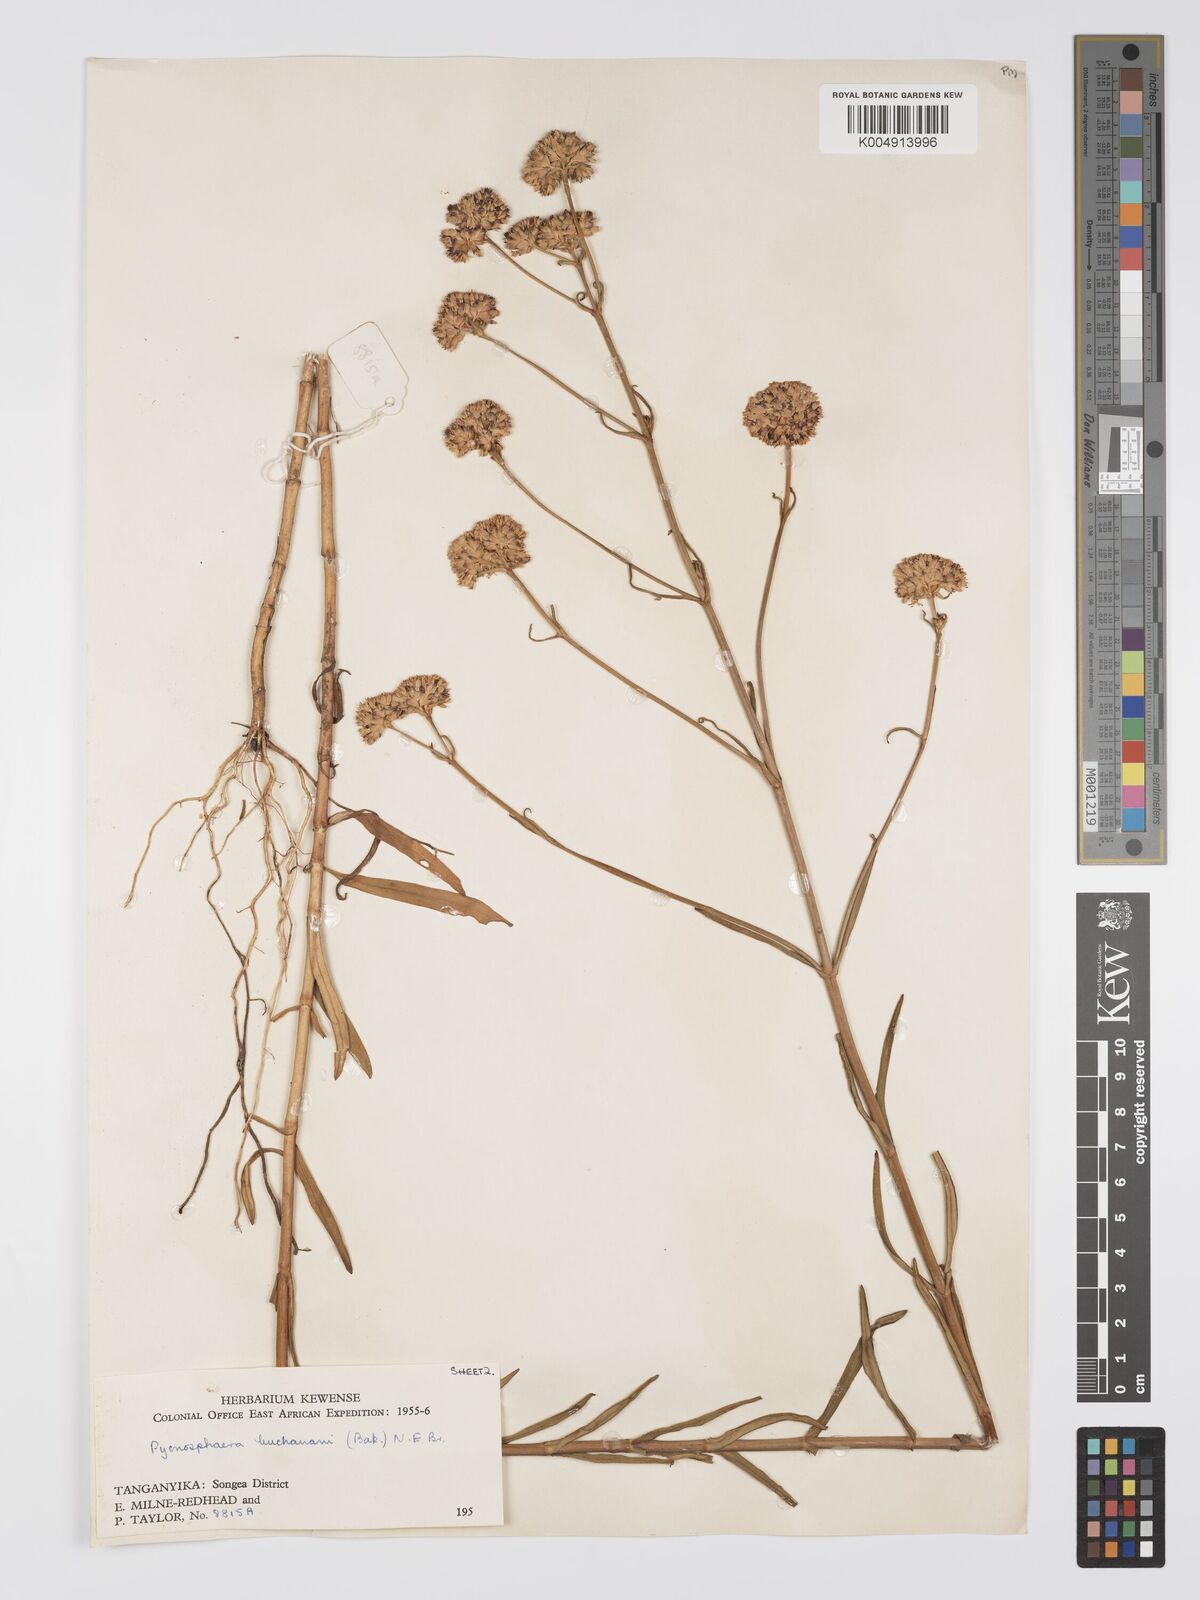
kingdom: Plantae
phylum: Tracheophyta
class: Magnoliopsida
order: Gentianales
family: Gentianaceae
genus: Pycnosphaera
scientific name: Pycnosphaera buchananii
